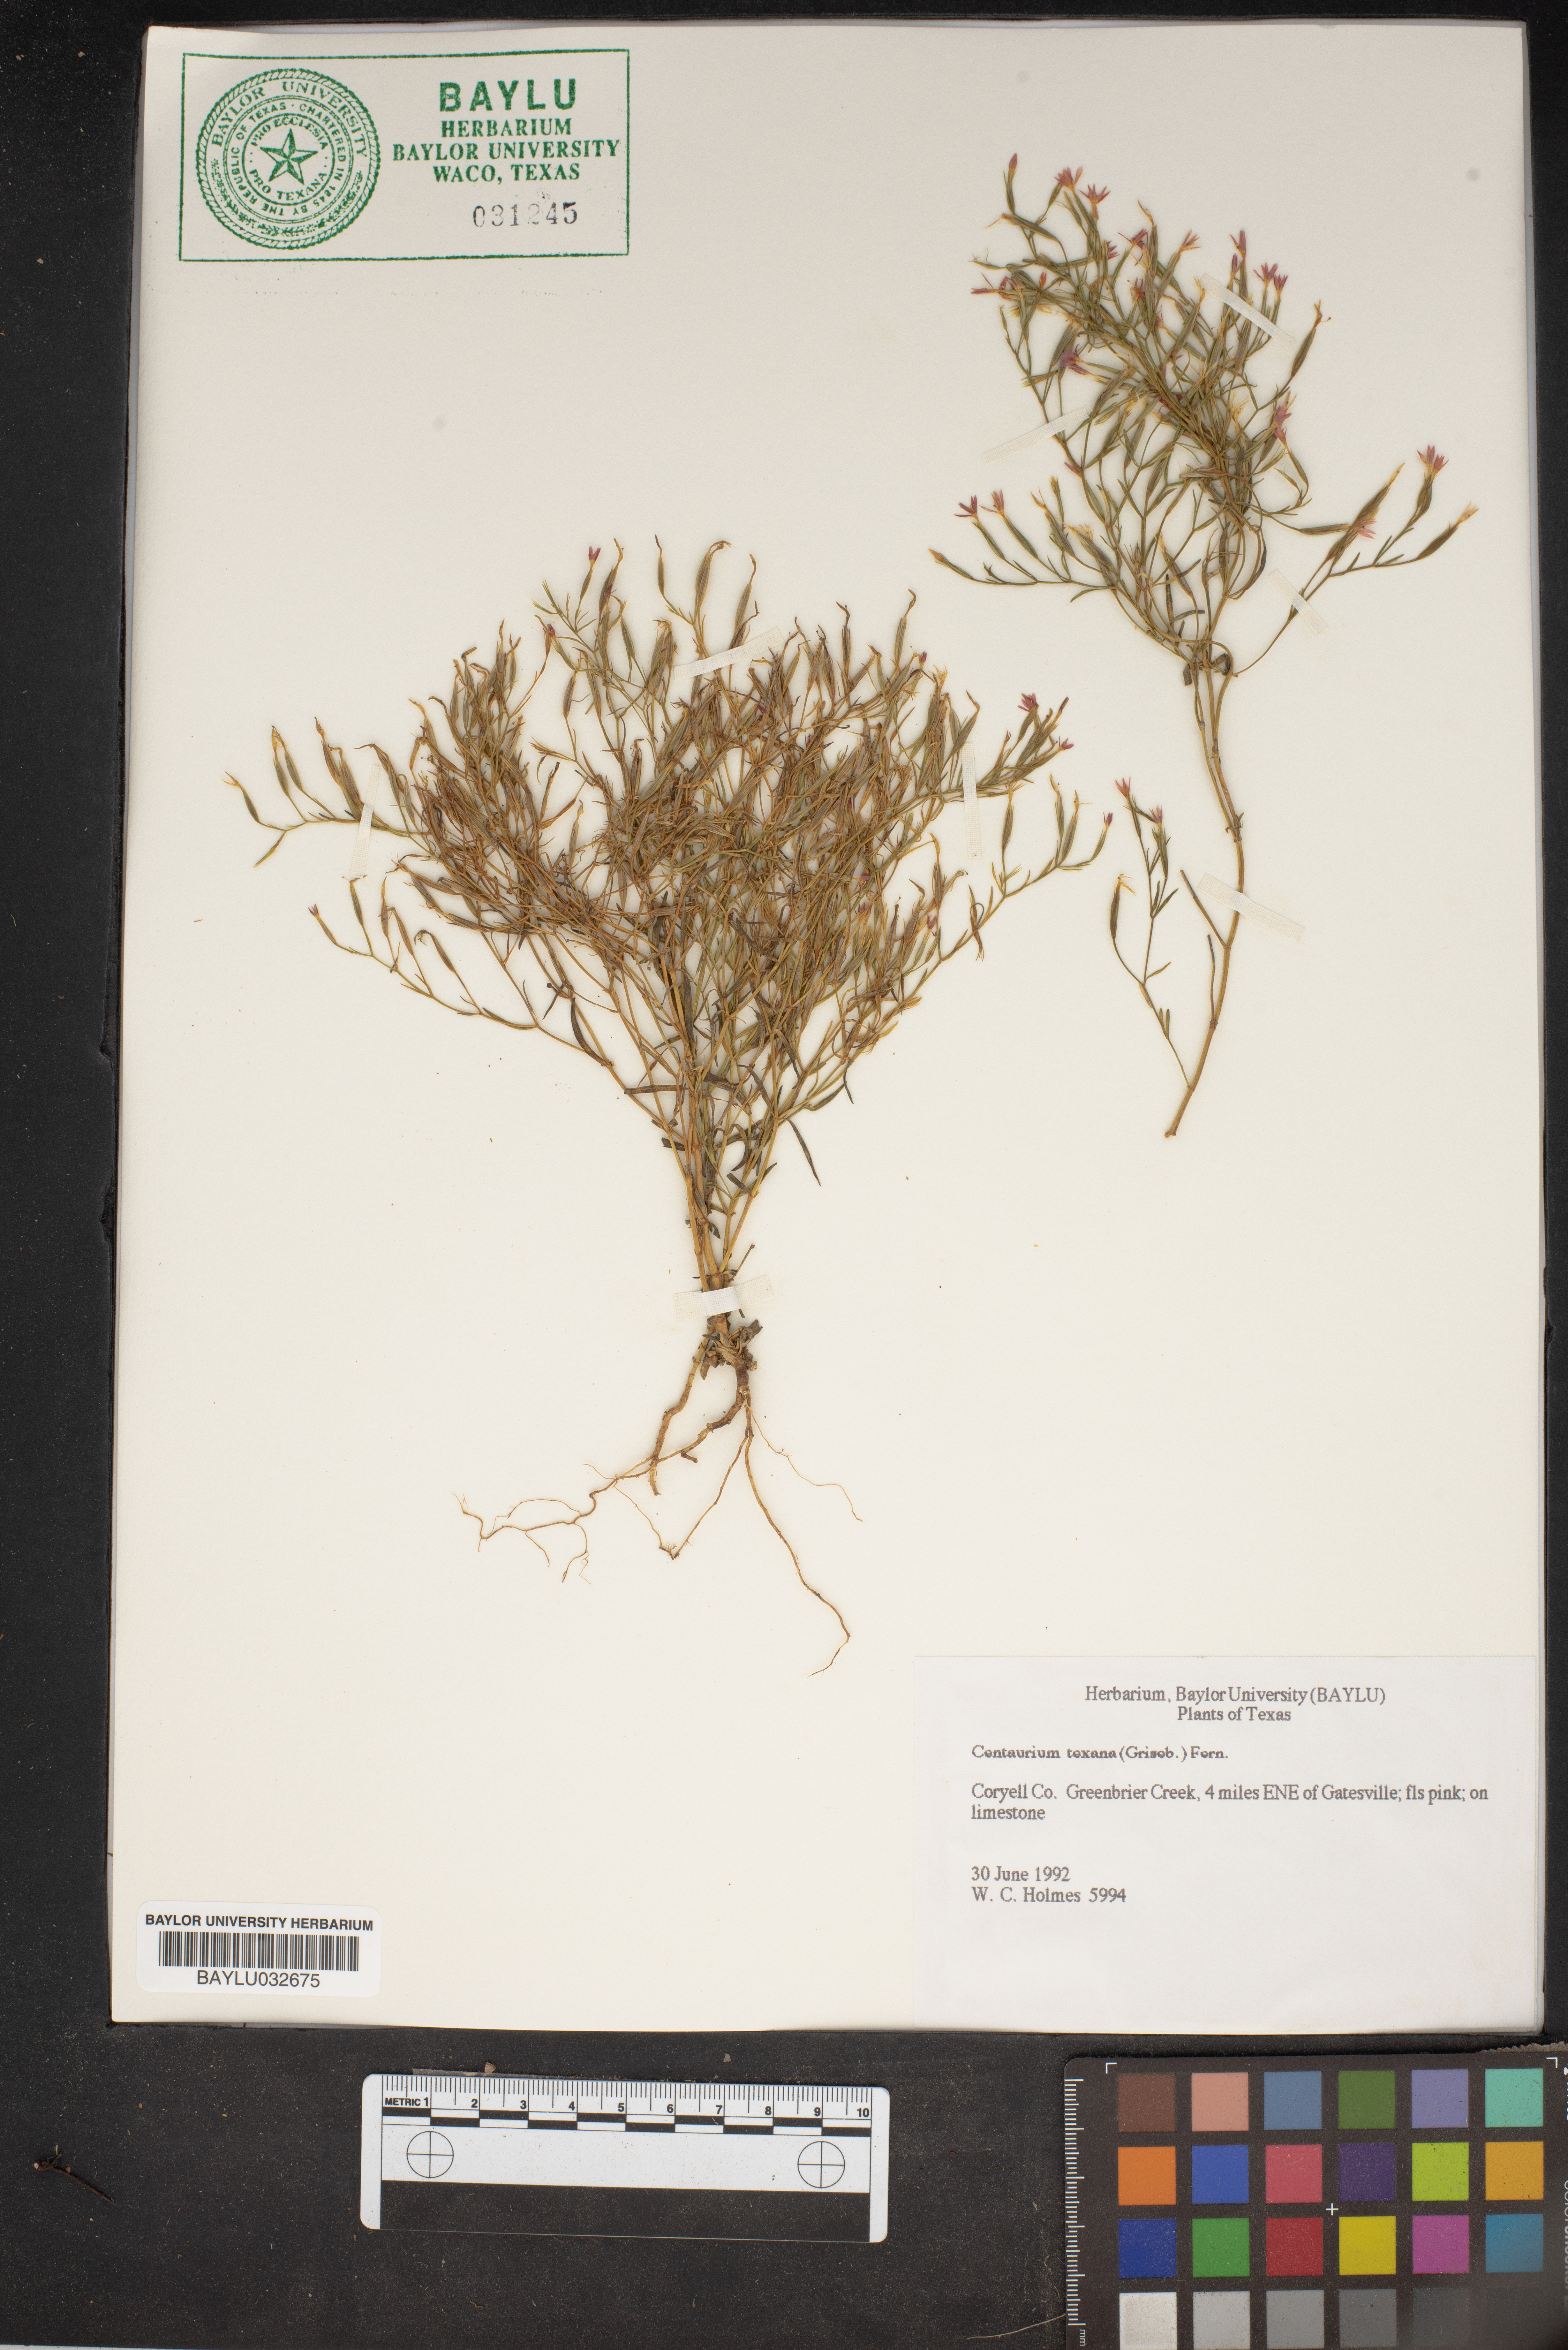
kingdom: Plantae
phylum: Tracheophyta
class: Magnoliopsida
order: Gentianales
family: Gentianaceae
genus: Zeltnera
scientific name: Zeltnera texensis
